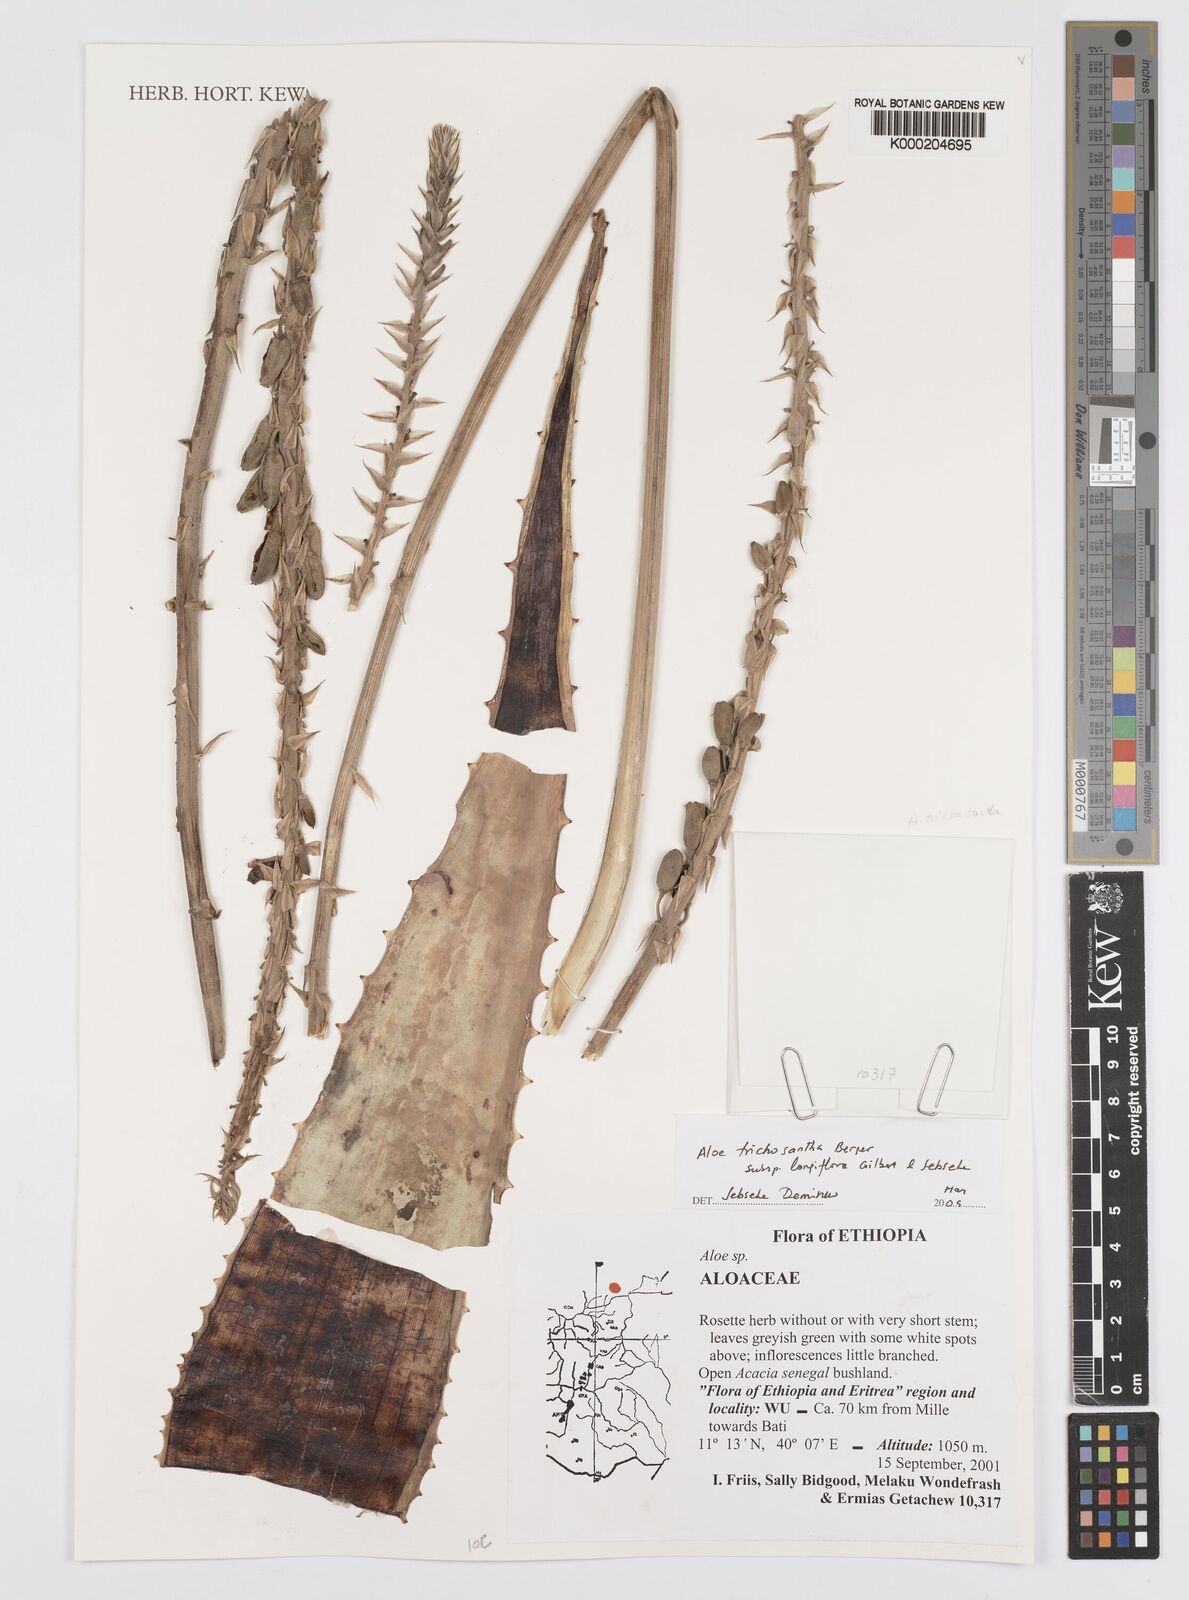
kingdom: Plantae
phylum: Tracheophyta
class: Liliopsida
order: Asparagales
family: Asphodelaceae
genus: Aloe
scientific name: Aloe trichosantha
